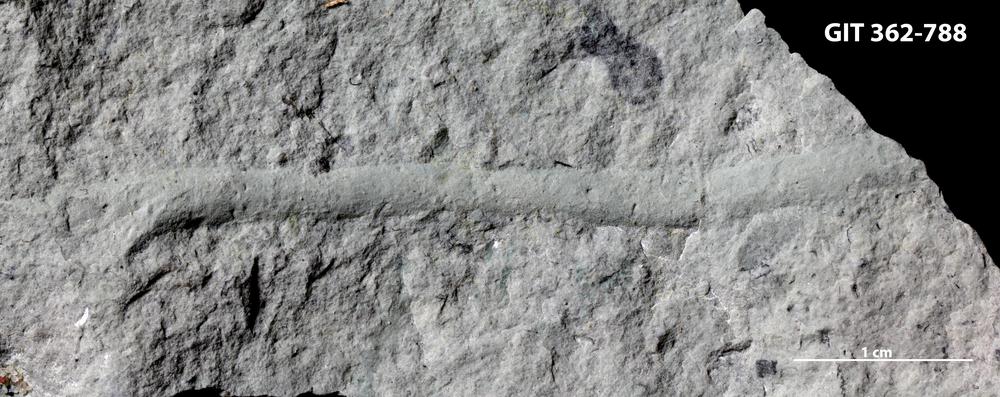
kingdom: Animalia
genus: Palaeophycus
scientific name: Palaeophycus tubularis
